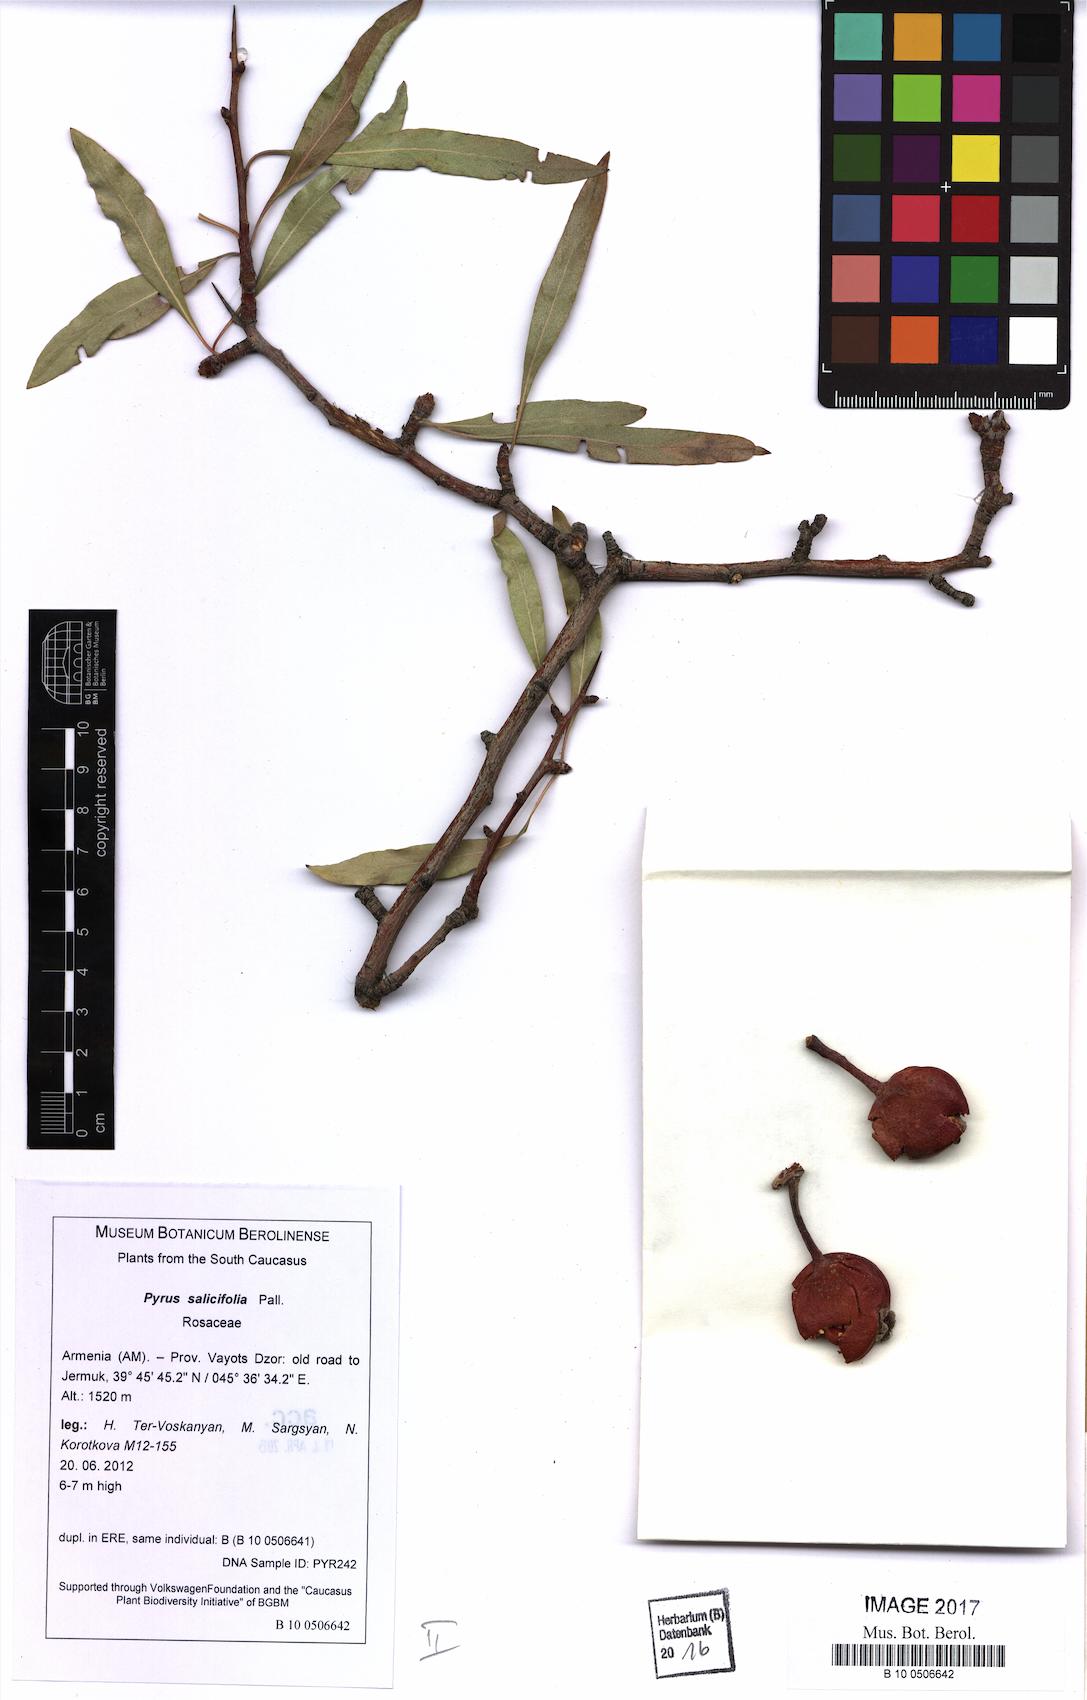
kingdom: Plantae
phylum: Tracheophyta
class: Magnoliopsida
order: Rosales
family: Rosaceae
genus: Pyrus
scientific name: Pyrus communis
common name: Pear
